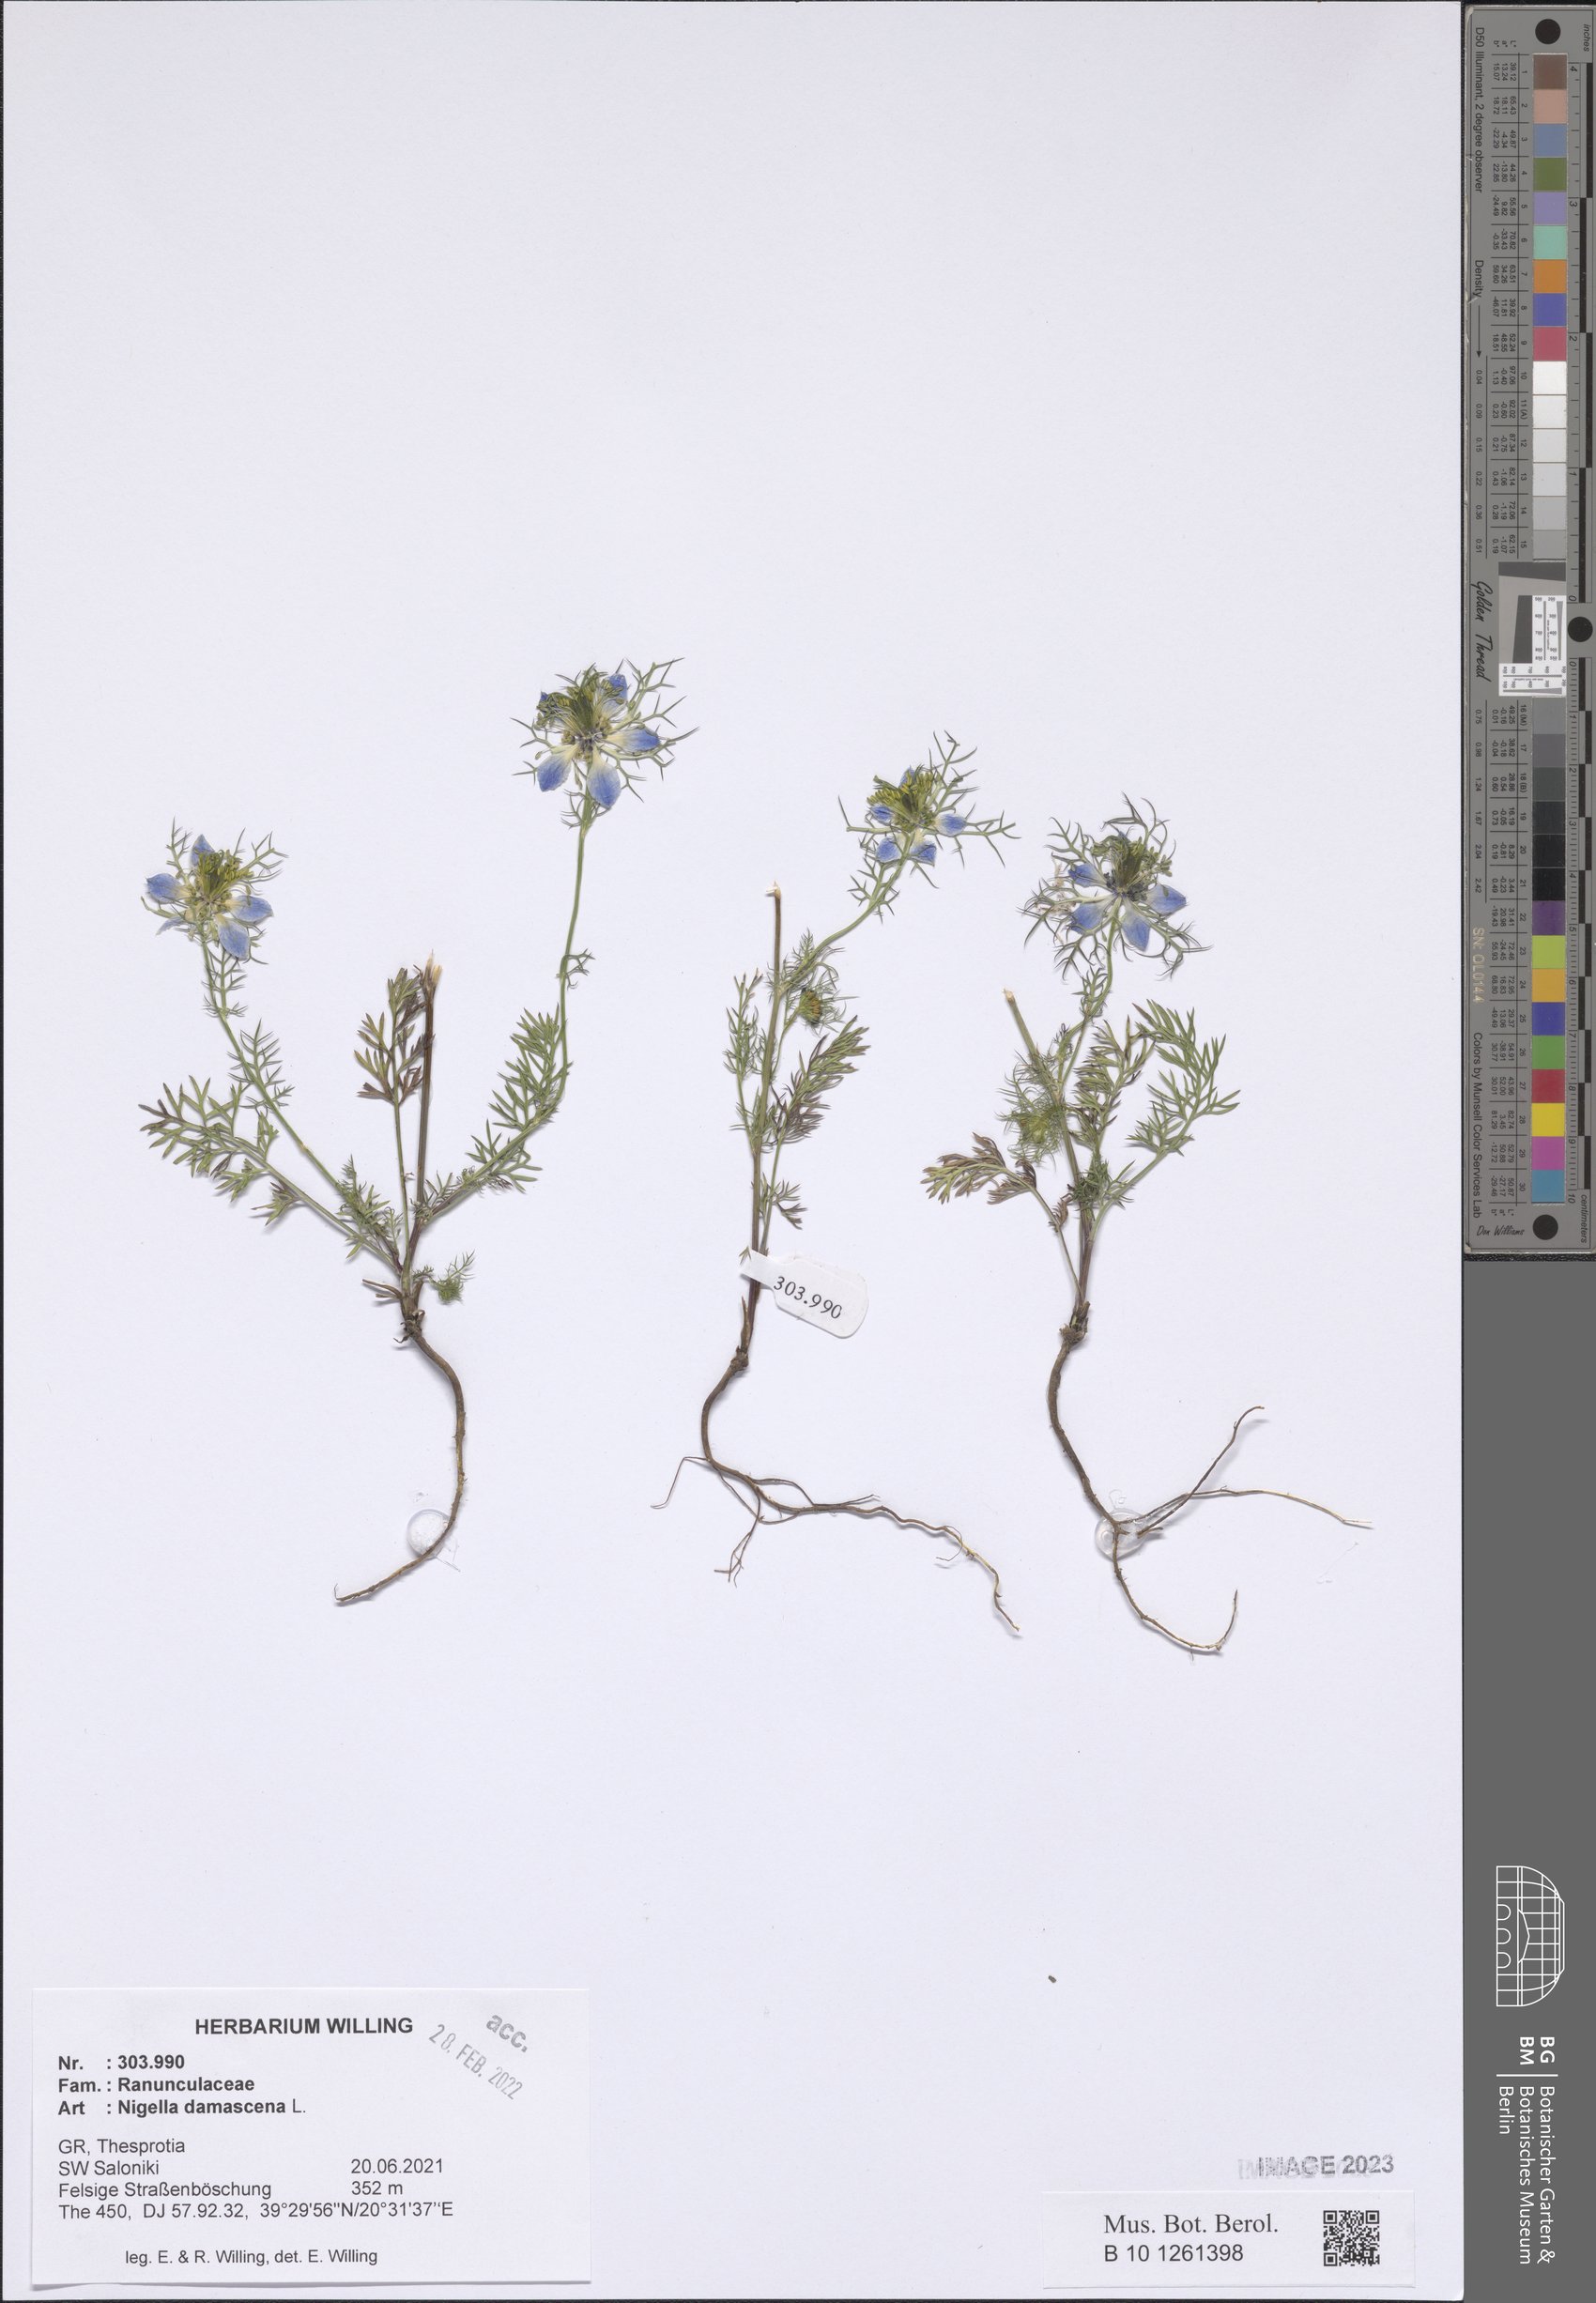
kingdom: Plantae
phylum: Tracheophyta
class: Magnoliopsida
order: Ranunculales
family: Ranunculaceae
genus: Nigella
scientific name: Nigella damascena
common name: Love-in-a-mist
